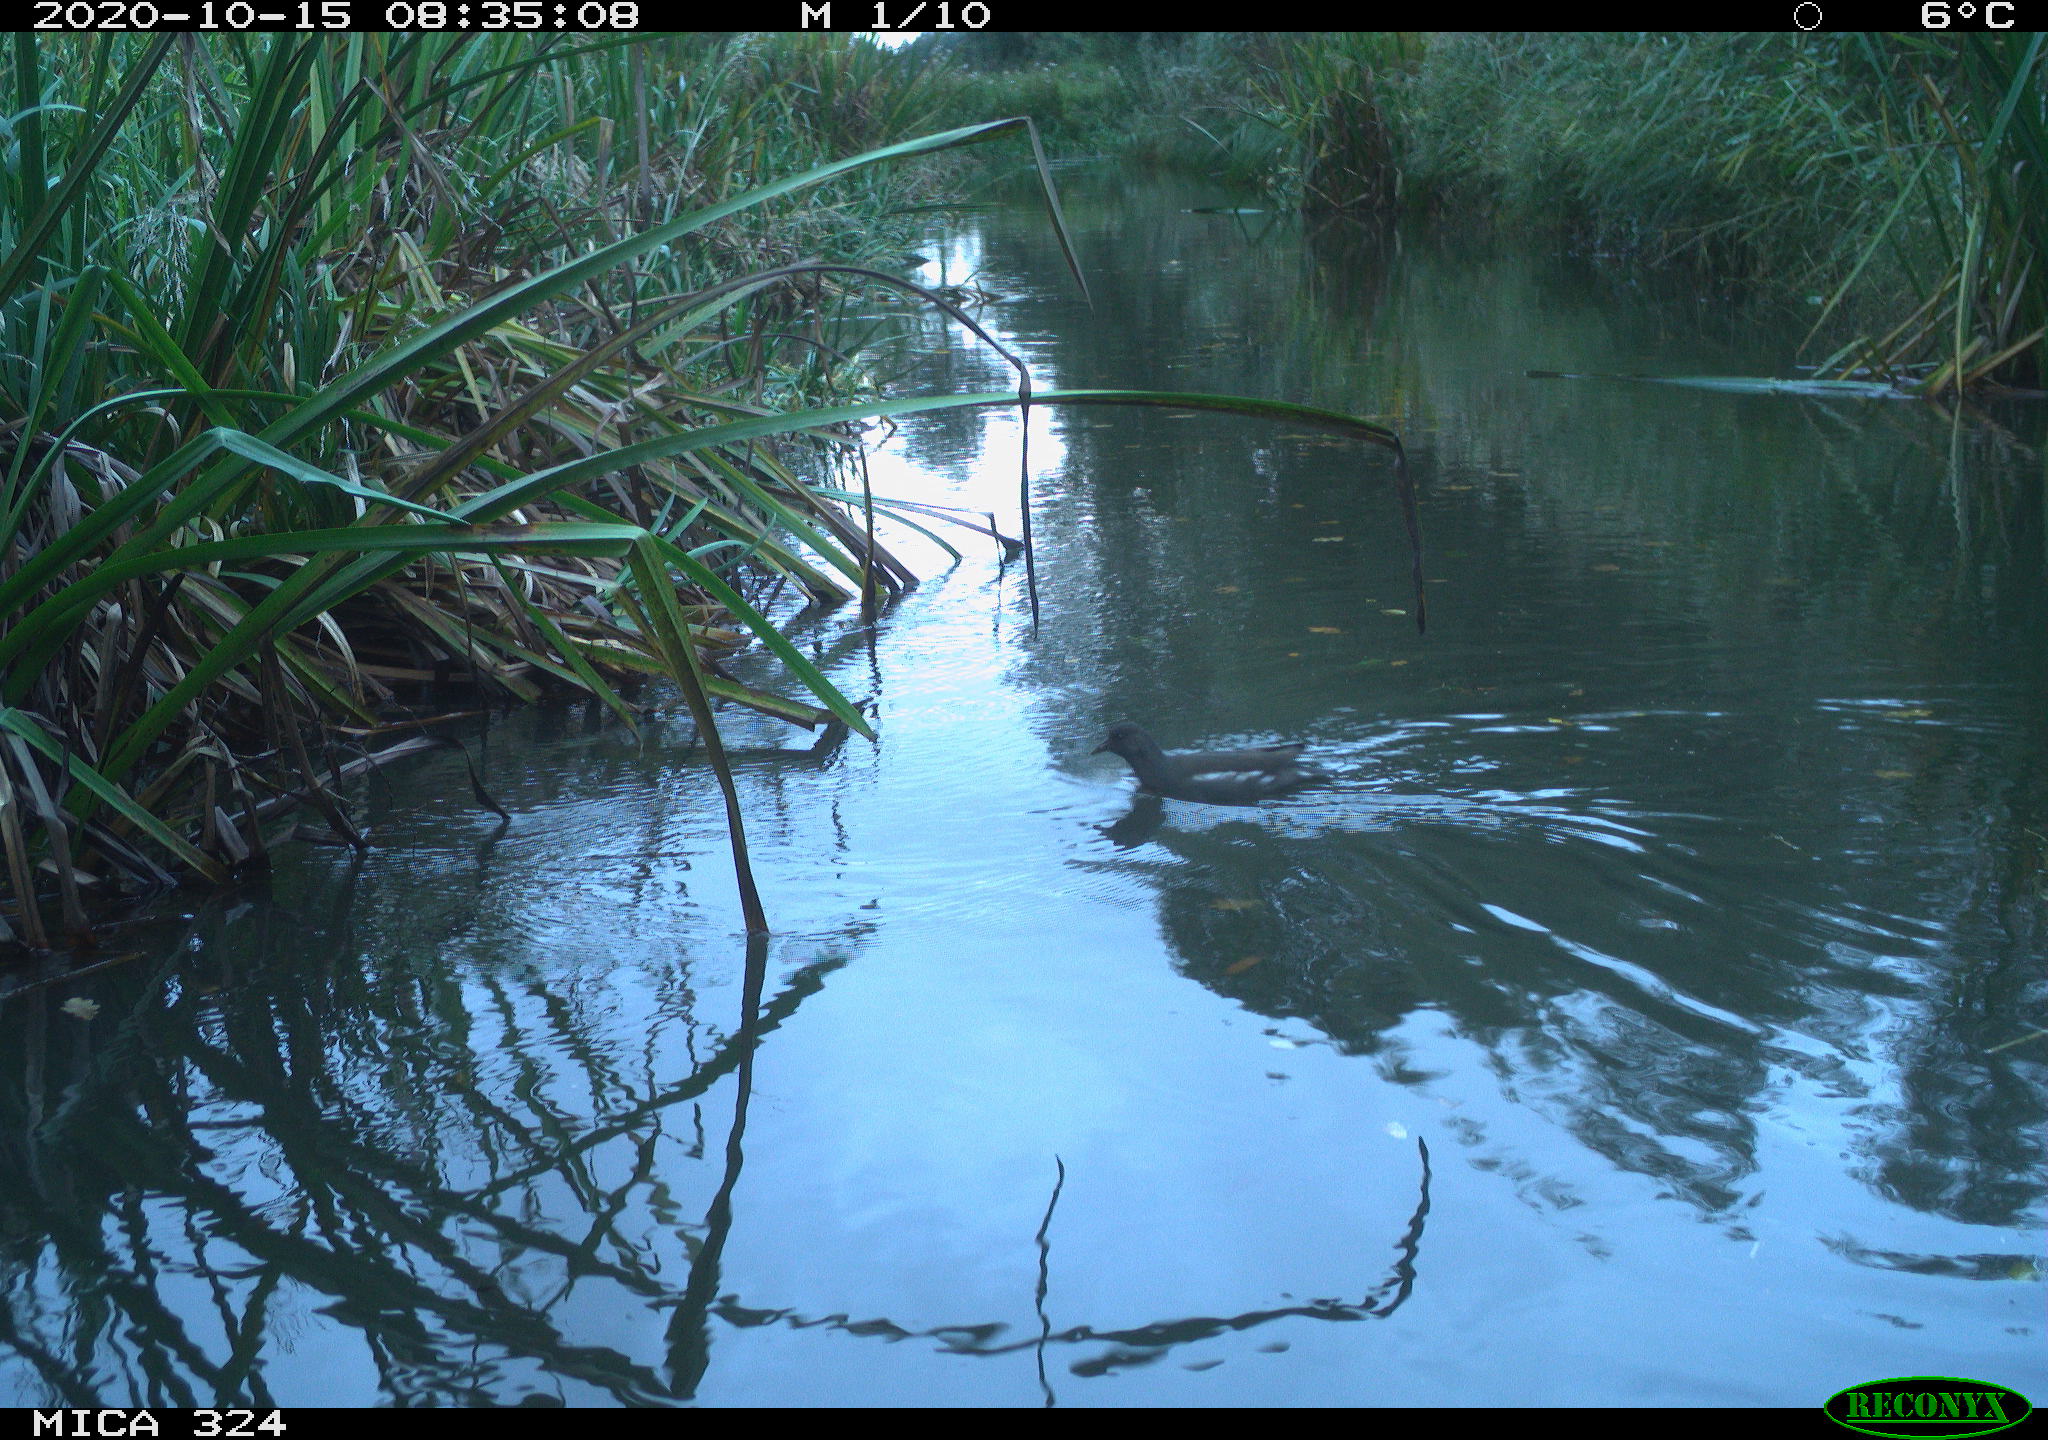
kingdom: Animalia
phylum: Chordata
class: Aves
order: Gruiformes
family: Rallidae
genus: Gallinula
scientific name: Gallinula chloropus
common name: Common moorhen
